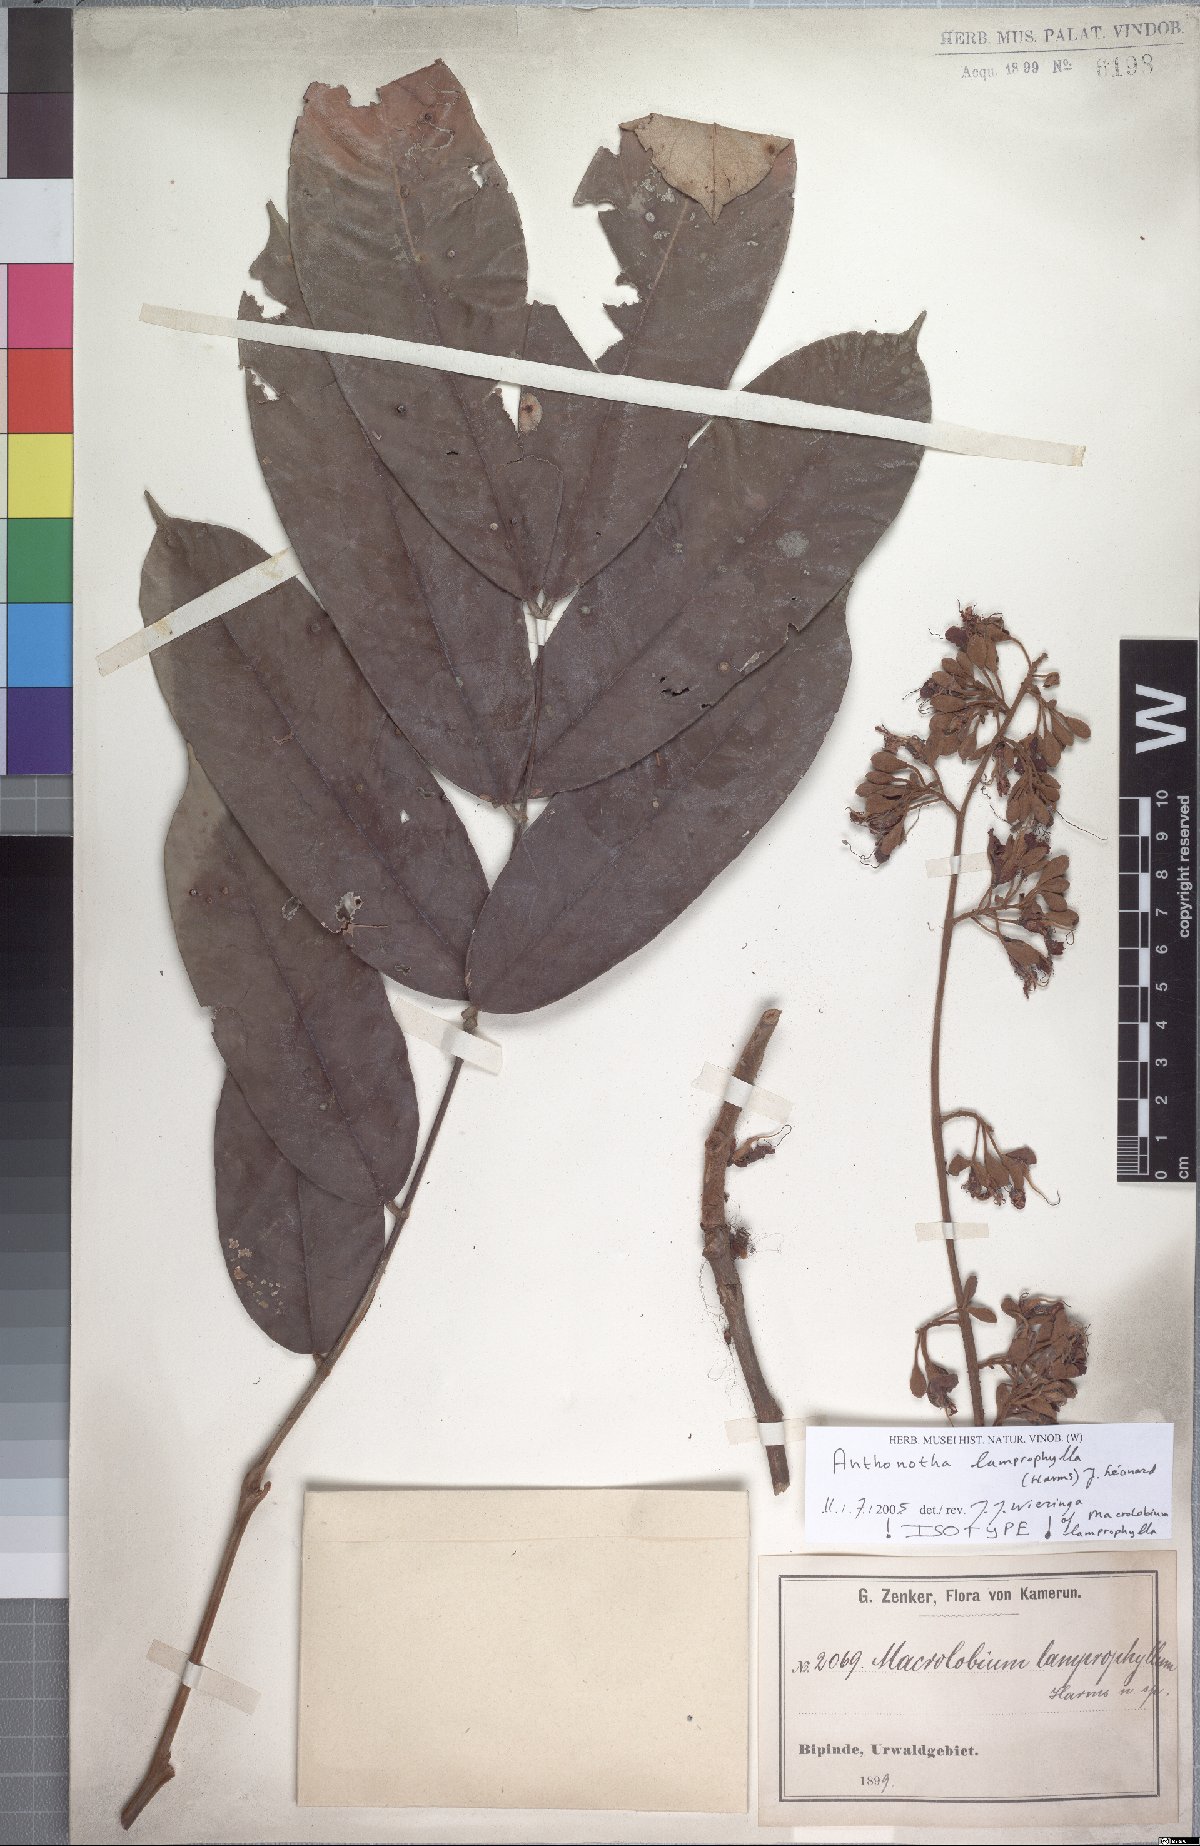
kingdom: Plantae
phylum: Tracheophyta
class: Magnoliopsida
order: Fabales
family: Fabaceae
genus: Anthonotha
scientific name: Anthonotha lamprophylla
